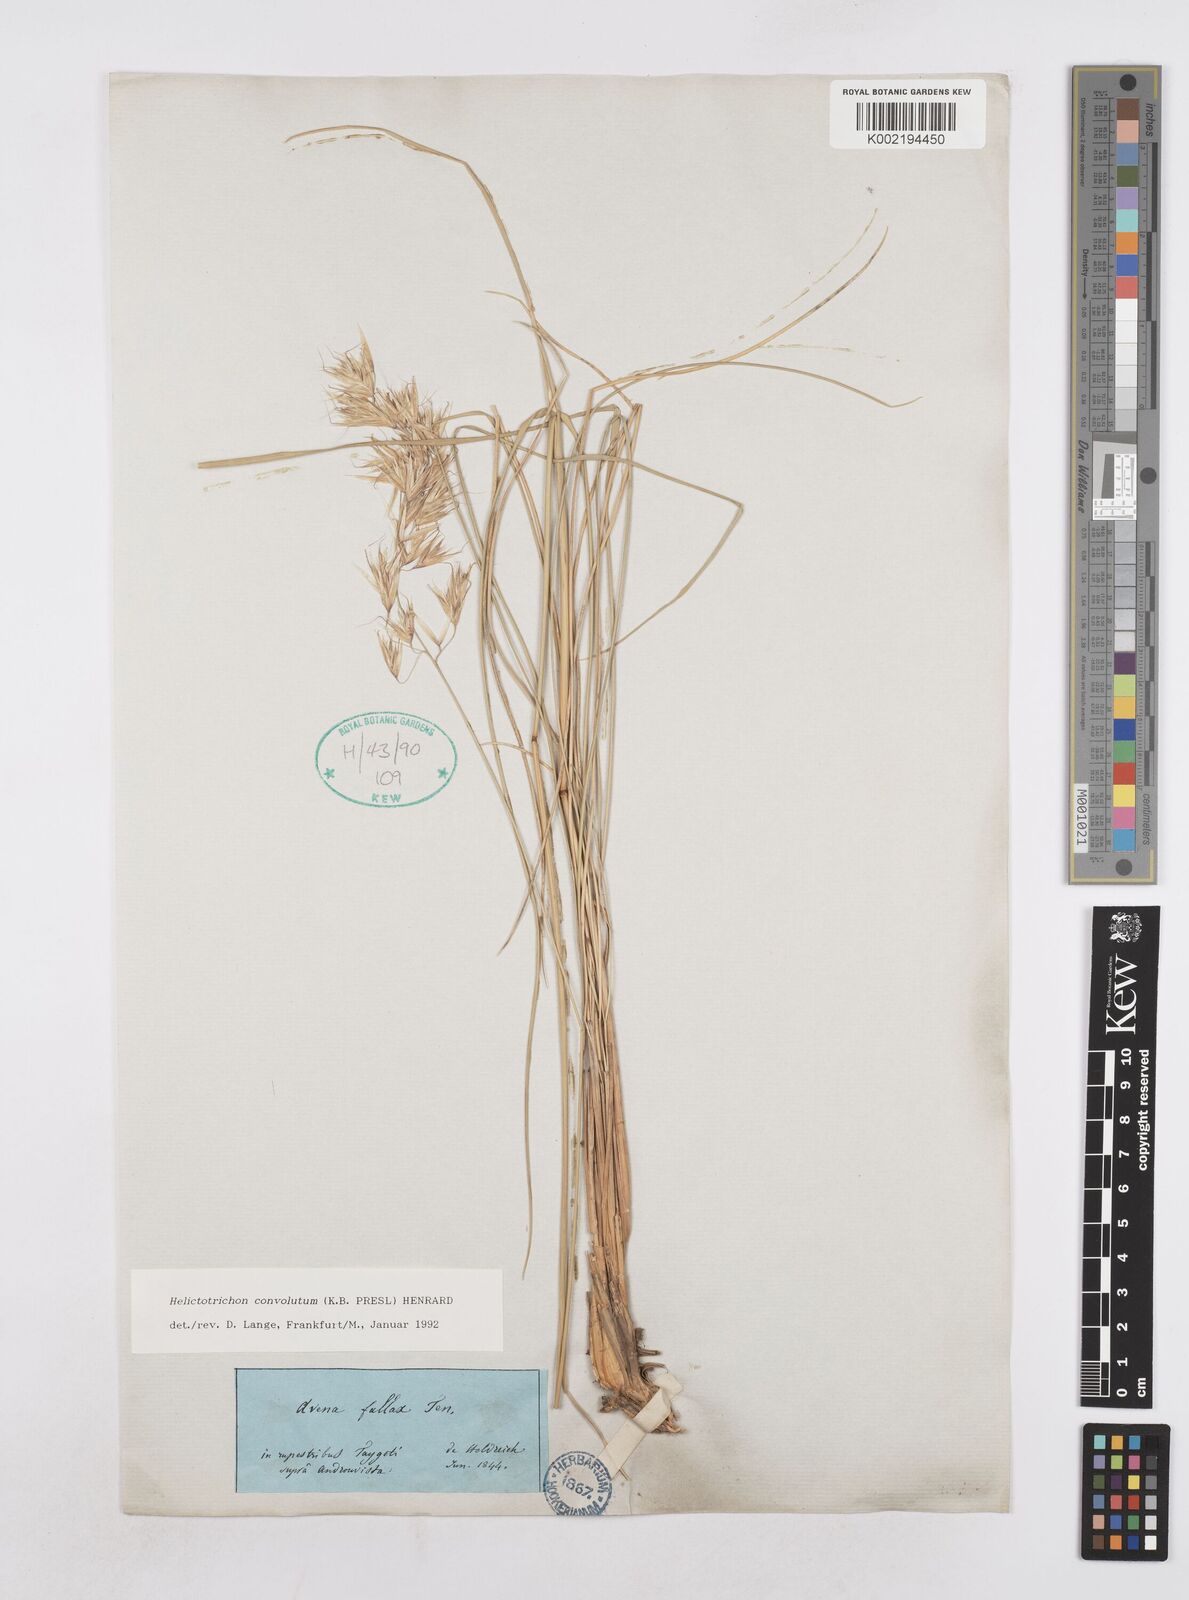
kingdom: Plantae
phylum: Tracheophyta
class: Liliopsida
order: Poales
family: Poaceae
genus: Helictotrichon
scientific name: Helictotrichon convolutum
